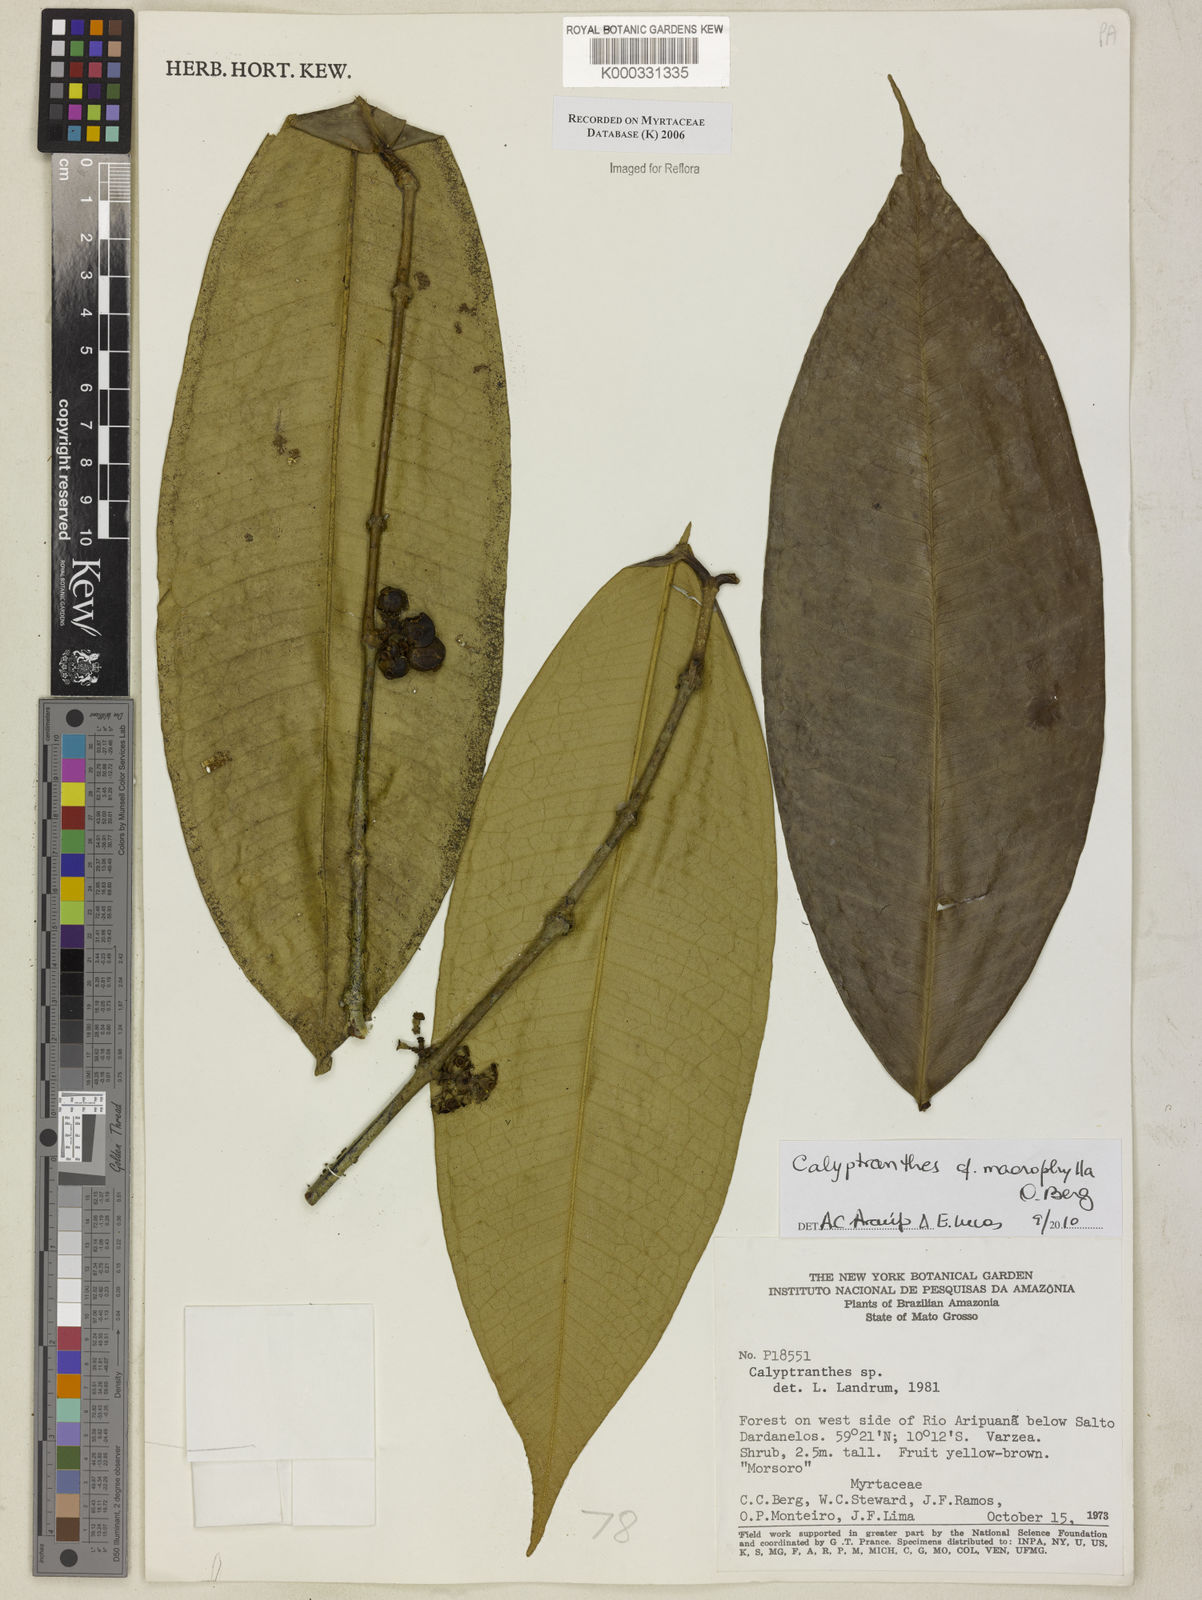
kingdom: Plantae
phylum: Tracheophyta
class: Magnoliopsida
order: Myrtales
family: Myrtaceae
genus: Calyptranthes
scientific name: Calyptranthes
